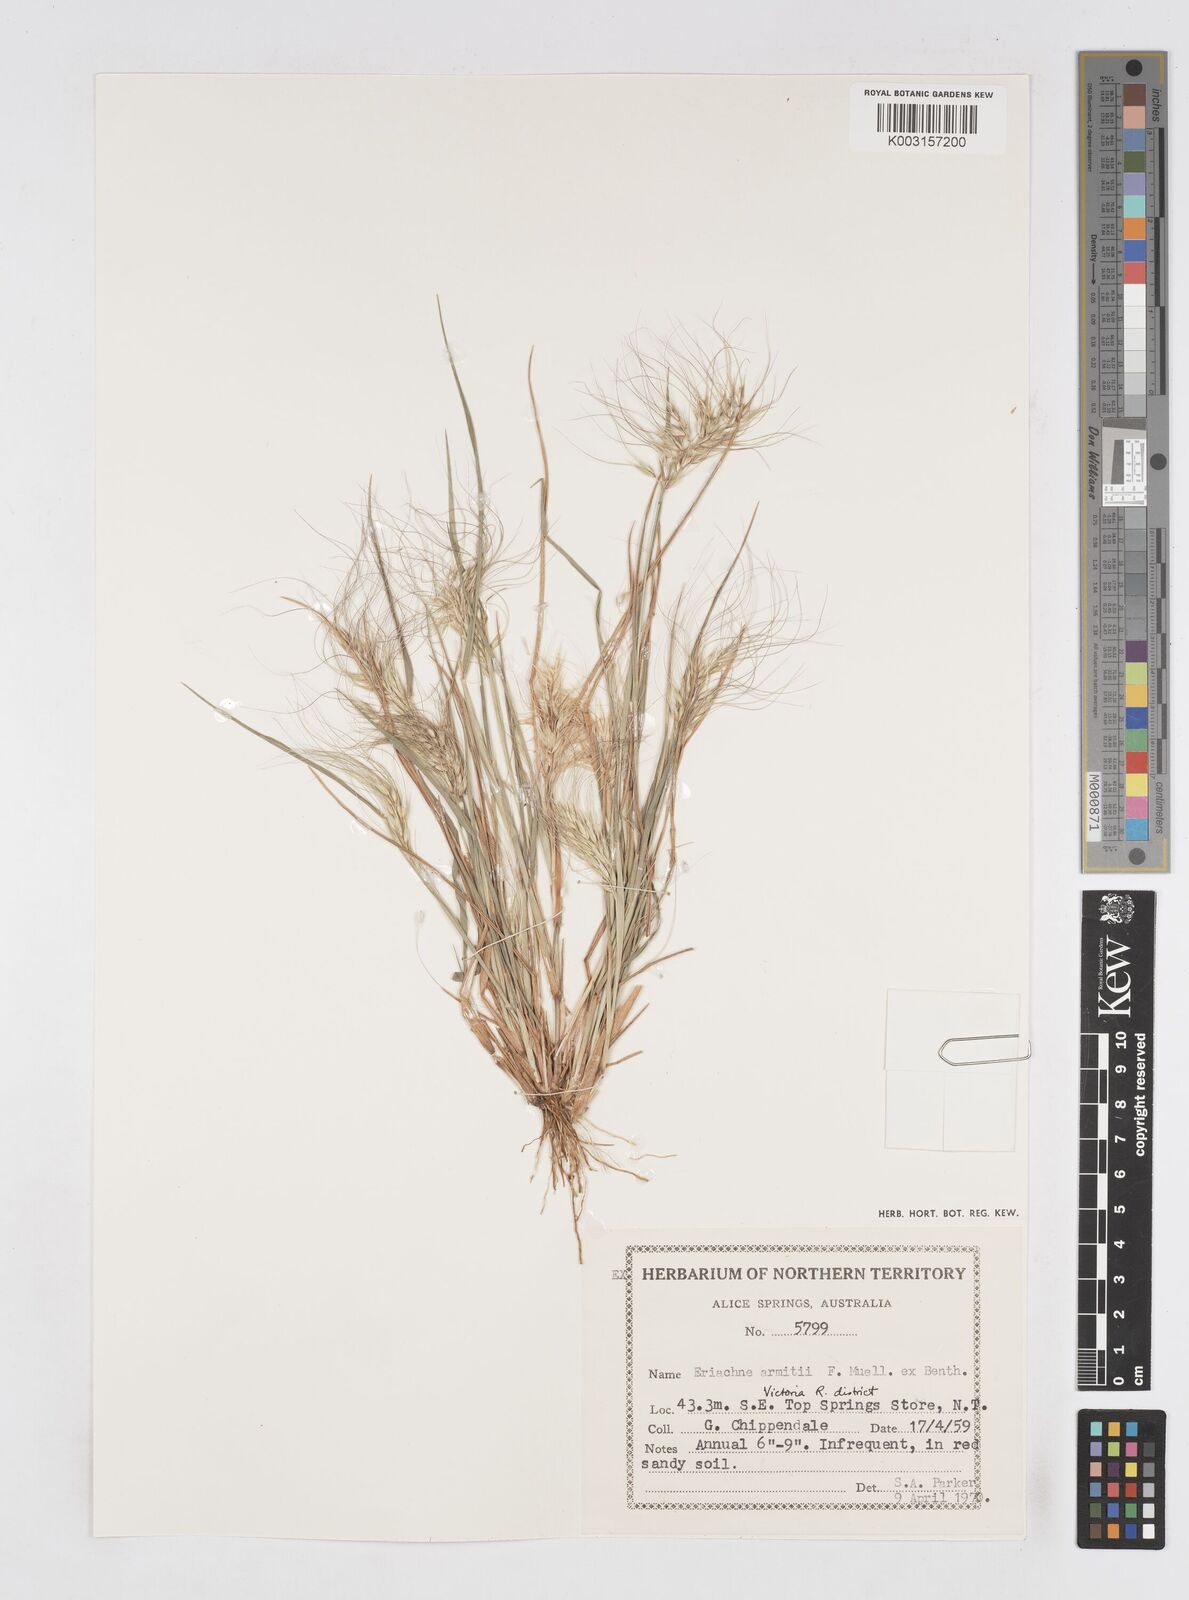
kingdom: Plantae
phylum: Tracheophyta
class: Liliopsida
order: Poales
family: Poaceae
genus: Eriachne
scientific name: Eriachne armitii
